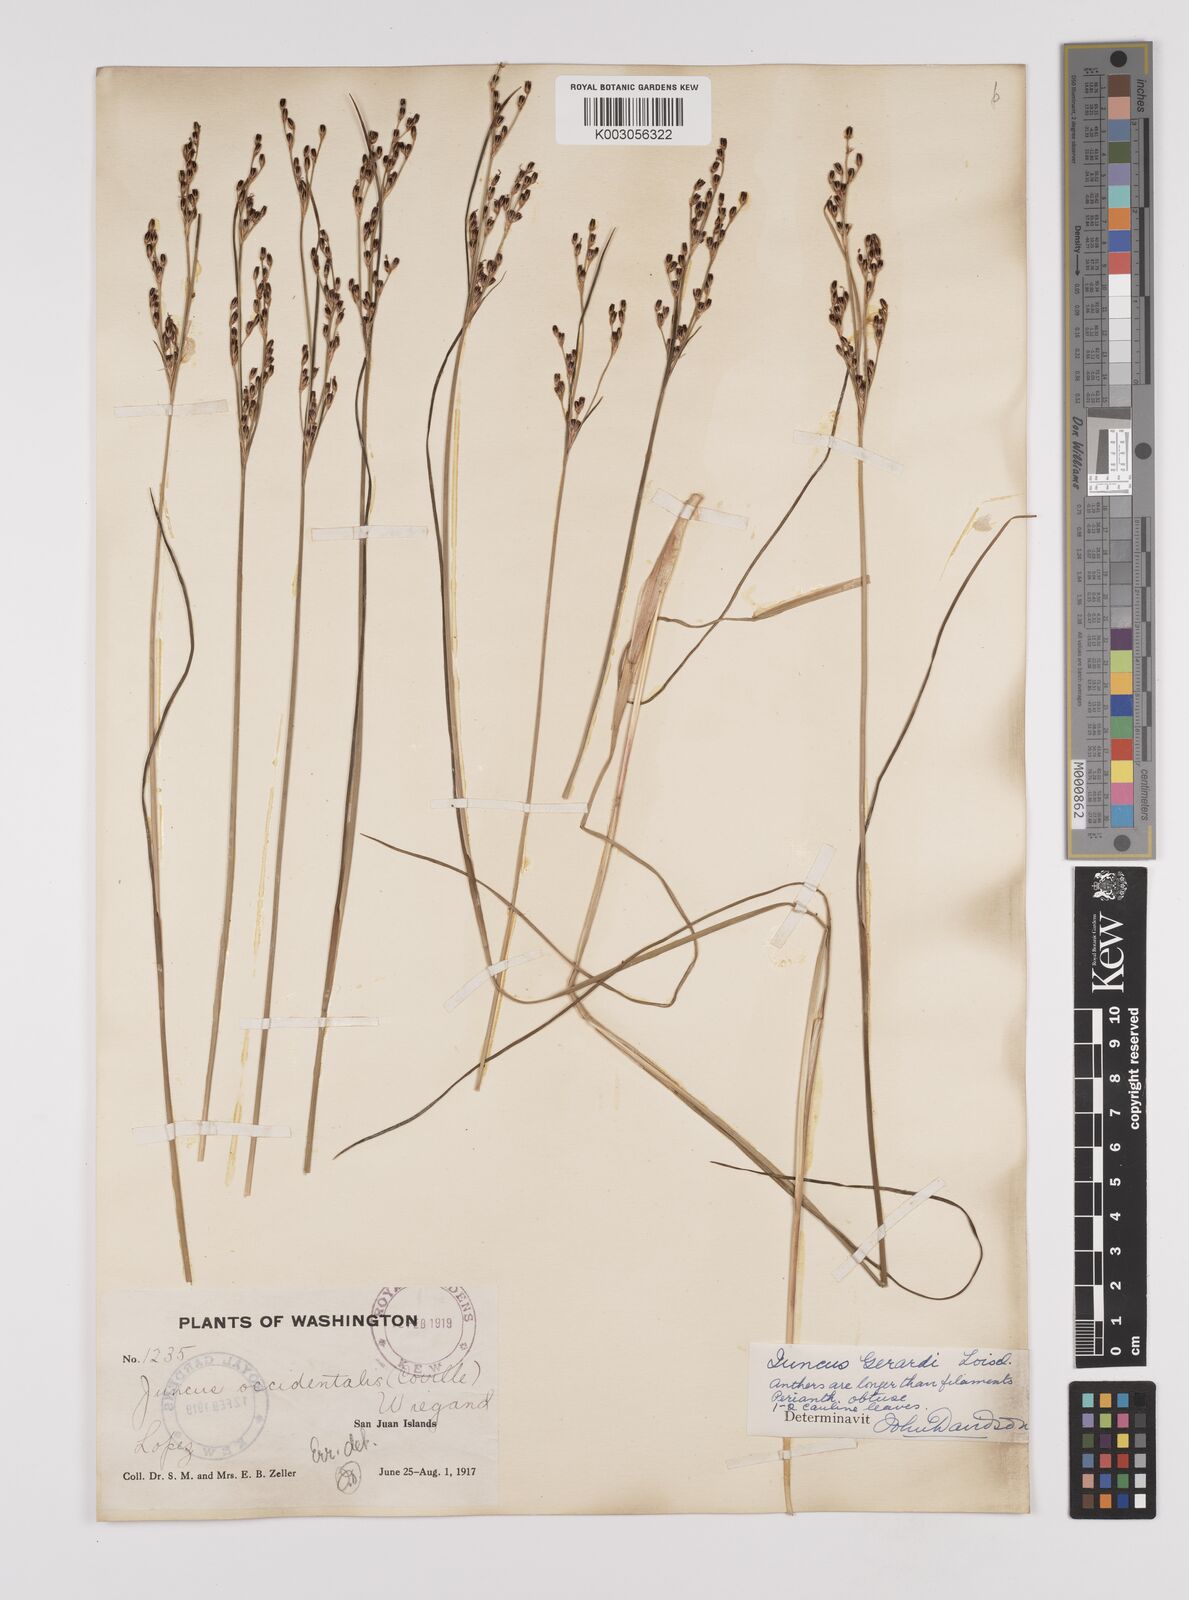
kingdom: Plantae
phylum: Tracheophyta
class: Liliopsida
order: Poales
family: Juncaceae
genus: Juncus
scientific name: Juncus gerardi
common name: Saltmarsh rush
